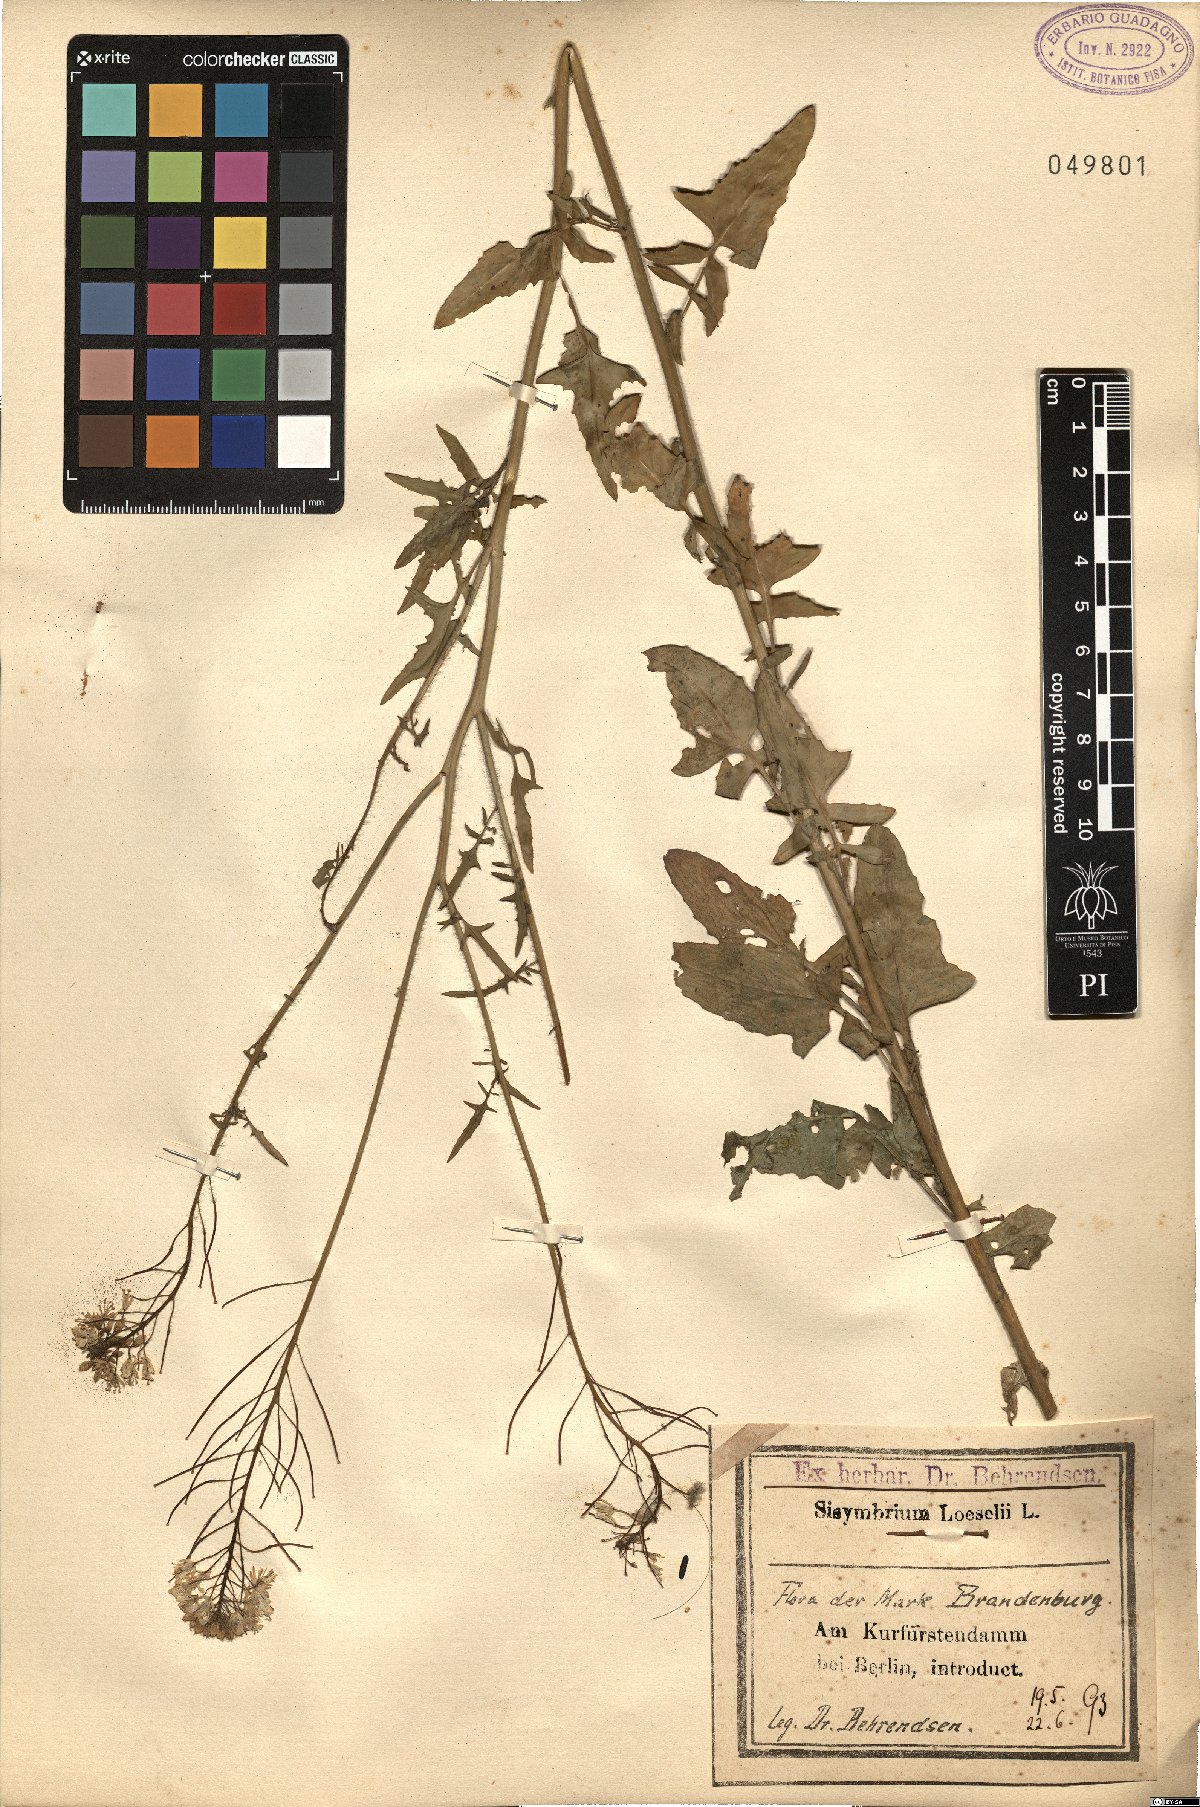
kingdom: Plantae
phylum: Tracheophyta
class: Magnoliopsida
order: Brassicales
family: Brassicaceae
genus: Sisymbrium
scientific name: Sisymbrium loeselii
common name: False london-rocket
